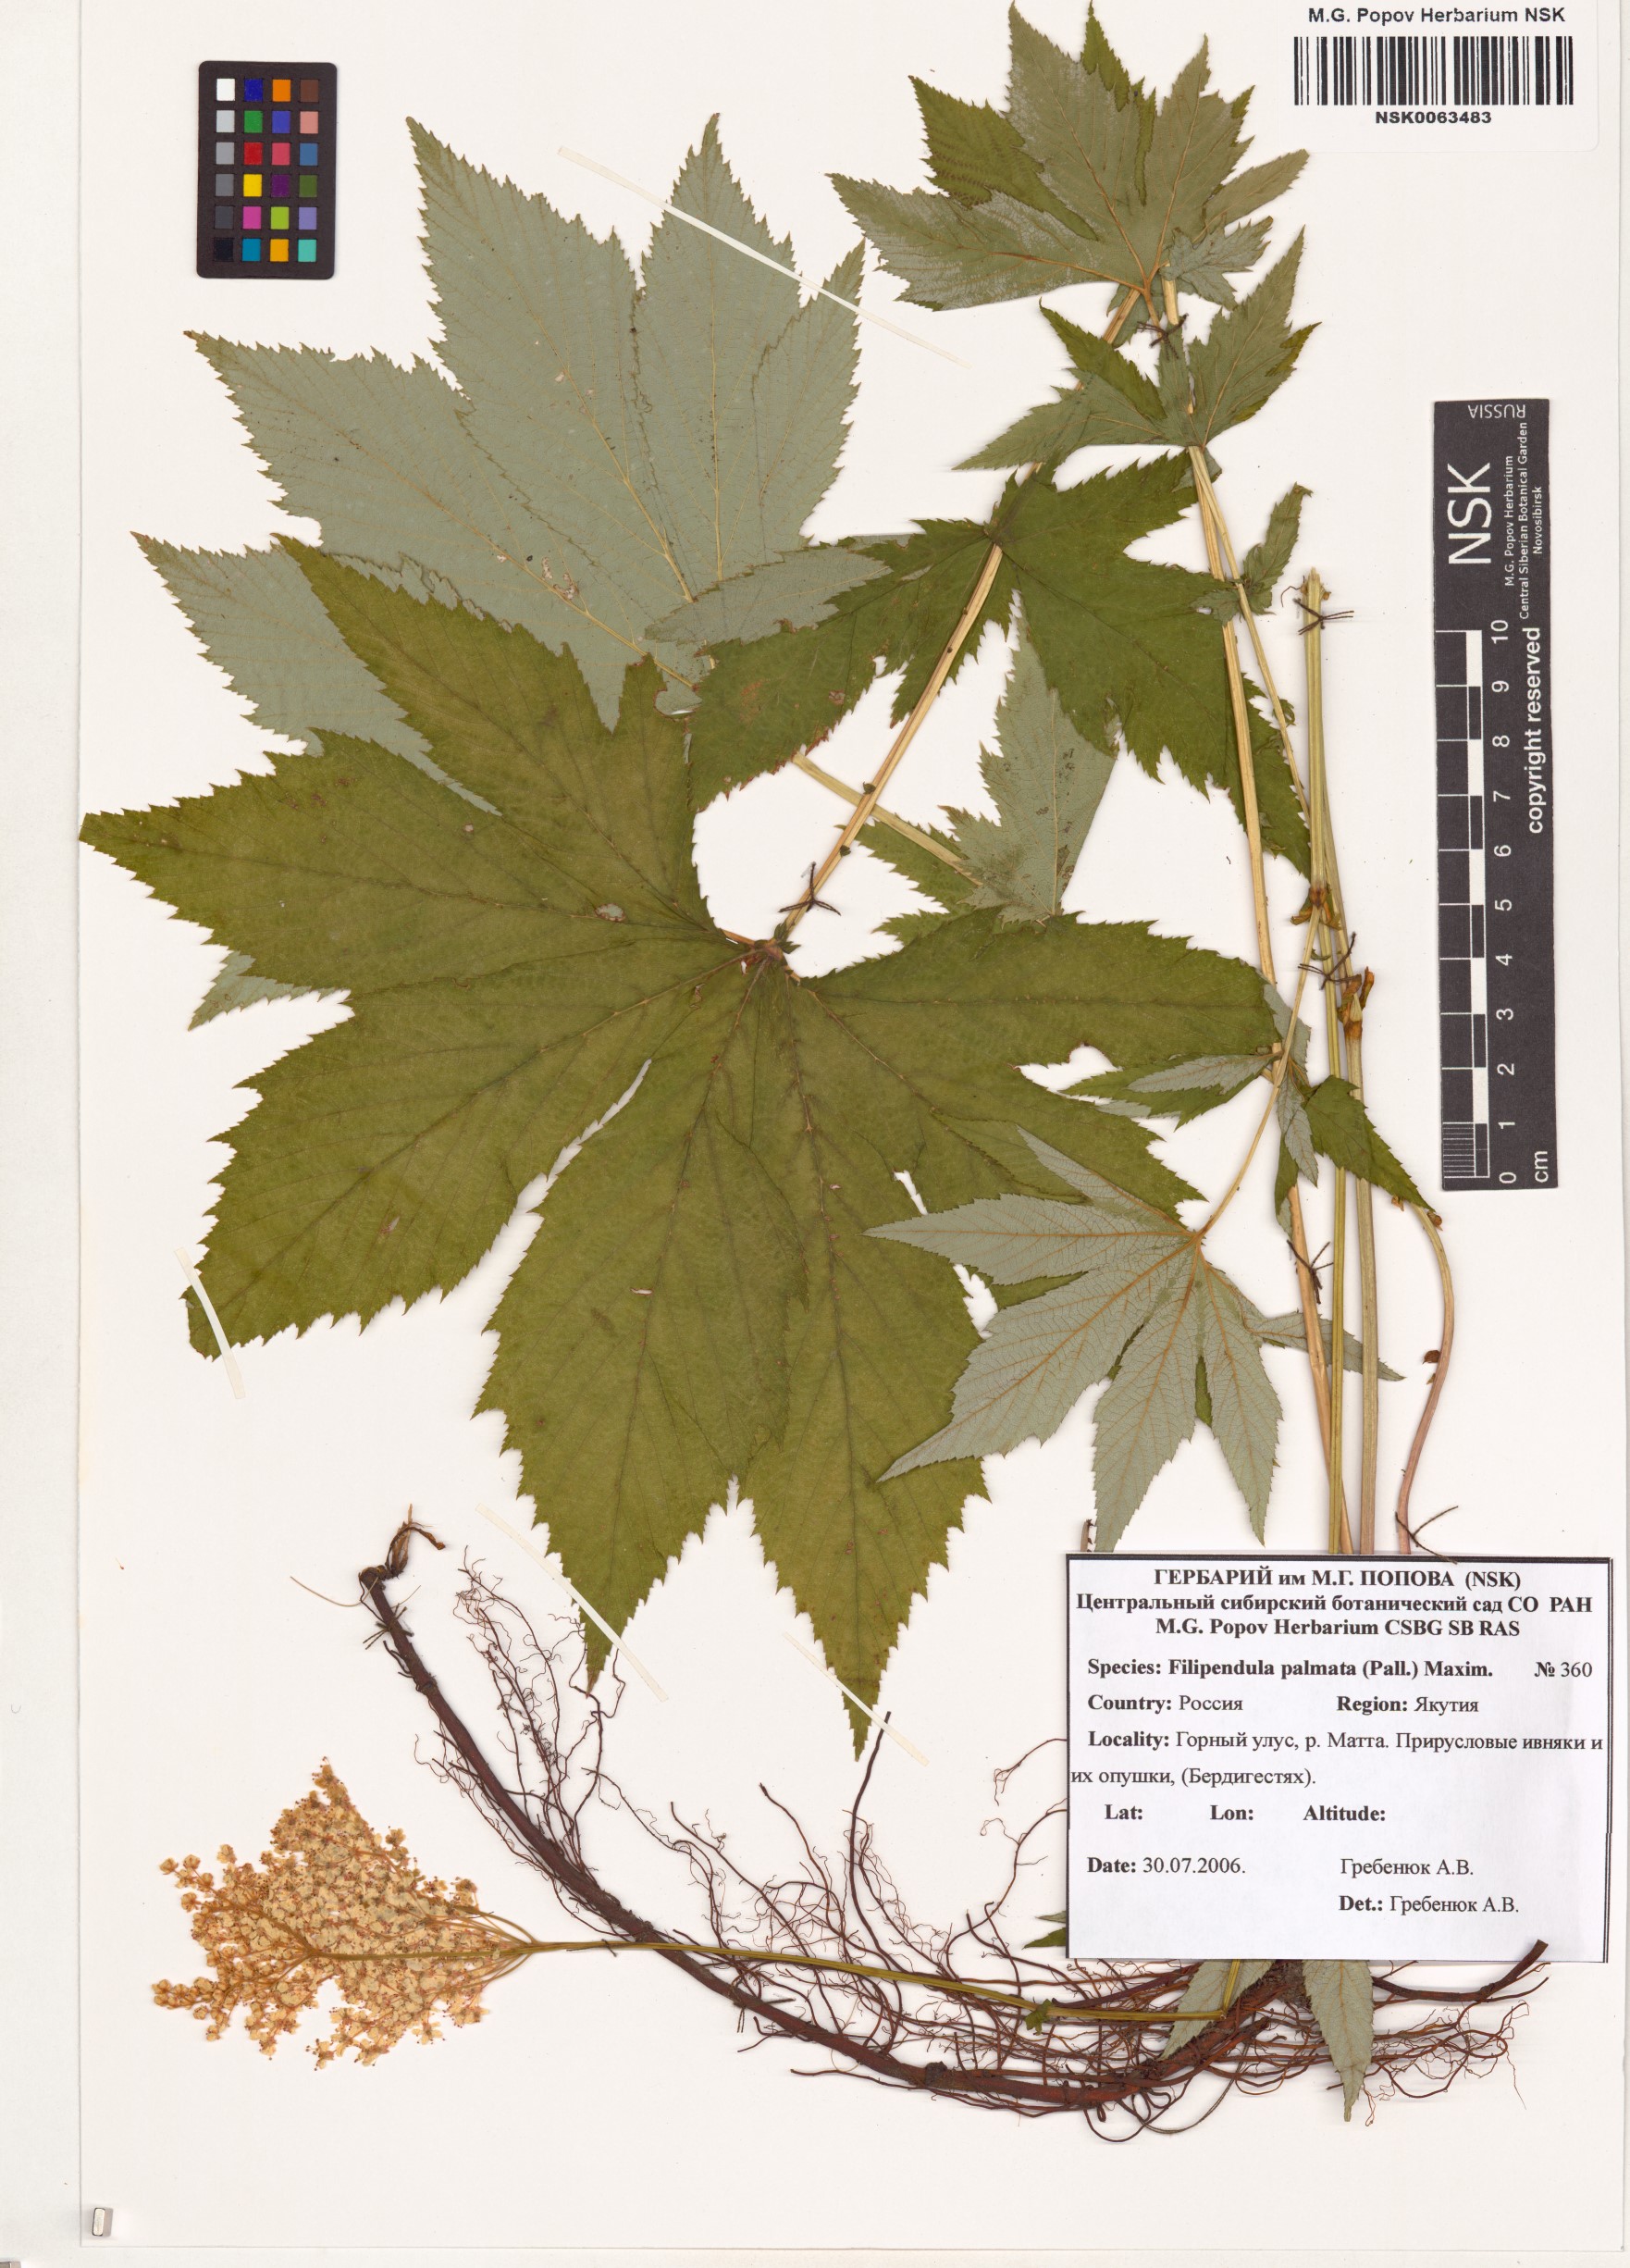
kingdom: Plantae
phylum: Tracheophyta
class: Magnoliopsida
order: Rosales
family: Rosaceae
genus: Filipendula
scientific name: Filipendula digitata
